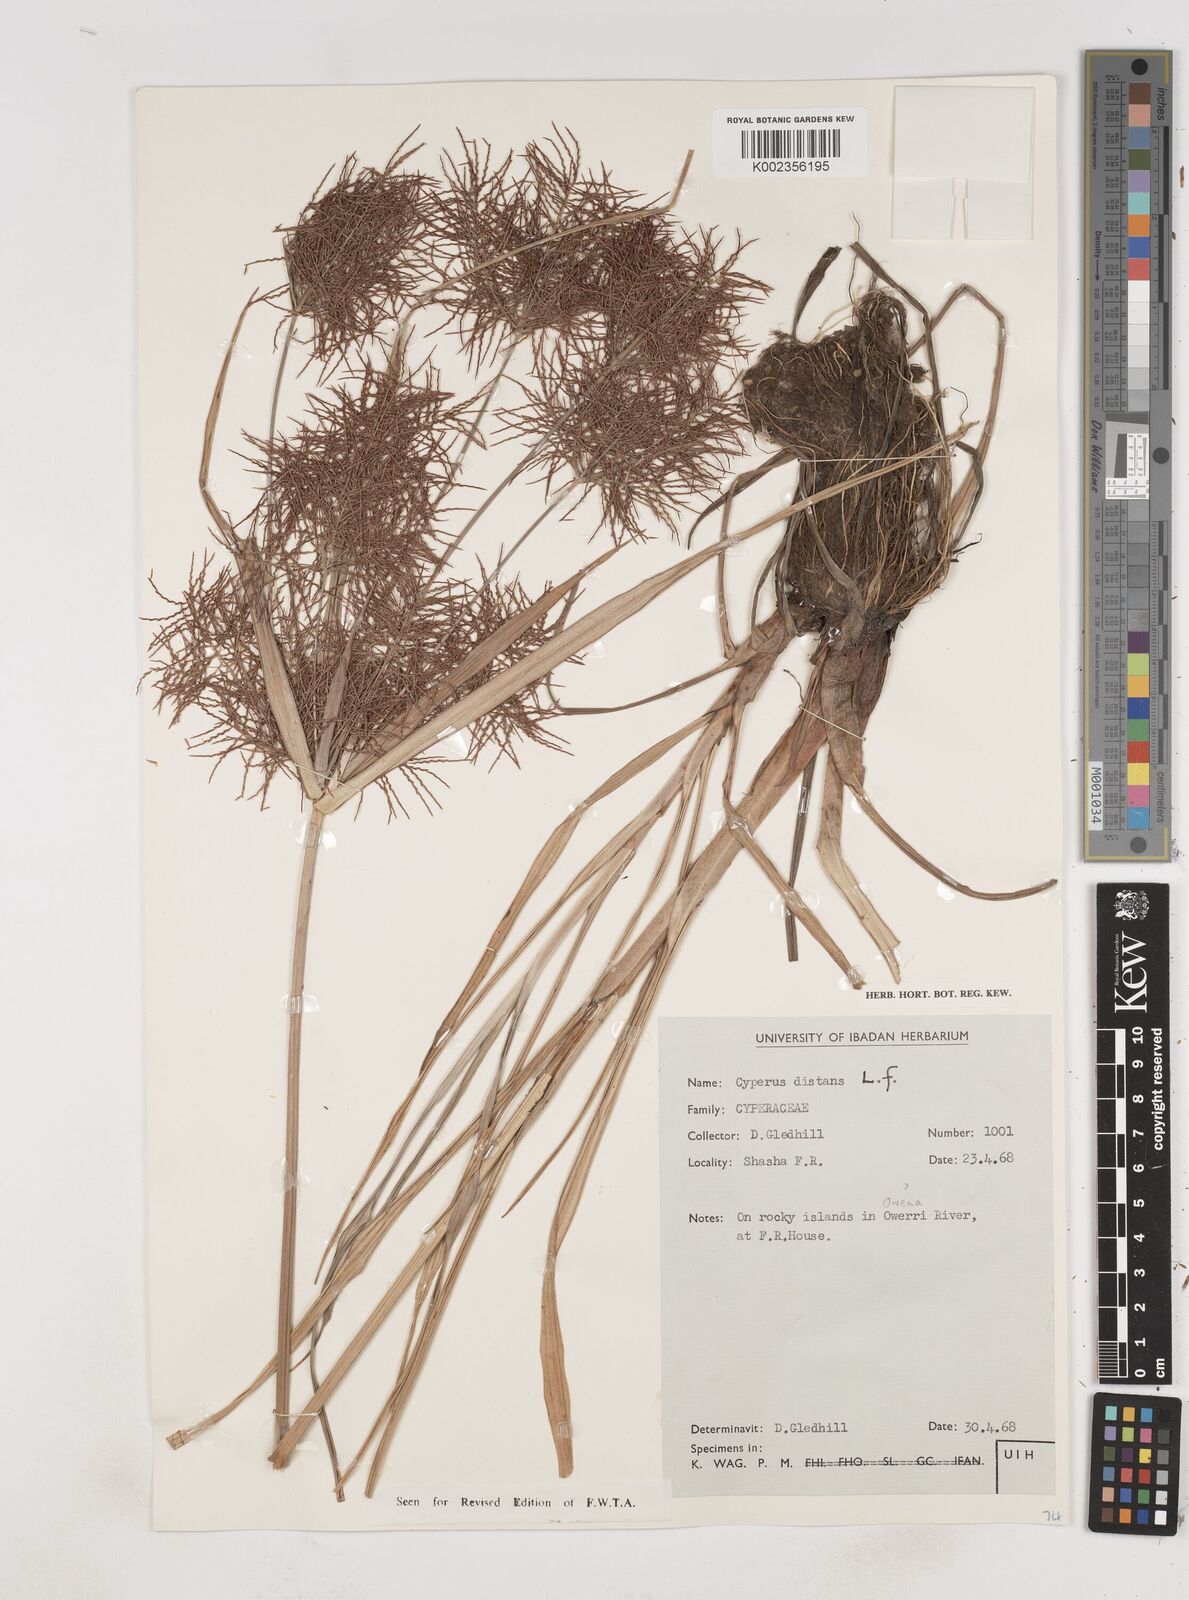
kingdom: Plantae
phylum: Tracheophyta
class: Liliopsida
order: Poales
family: Cyperaceae
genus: Cyperus
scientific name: Cyperus distans
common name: Slender cyperus
